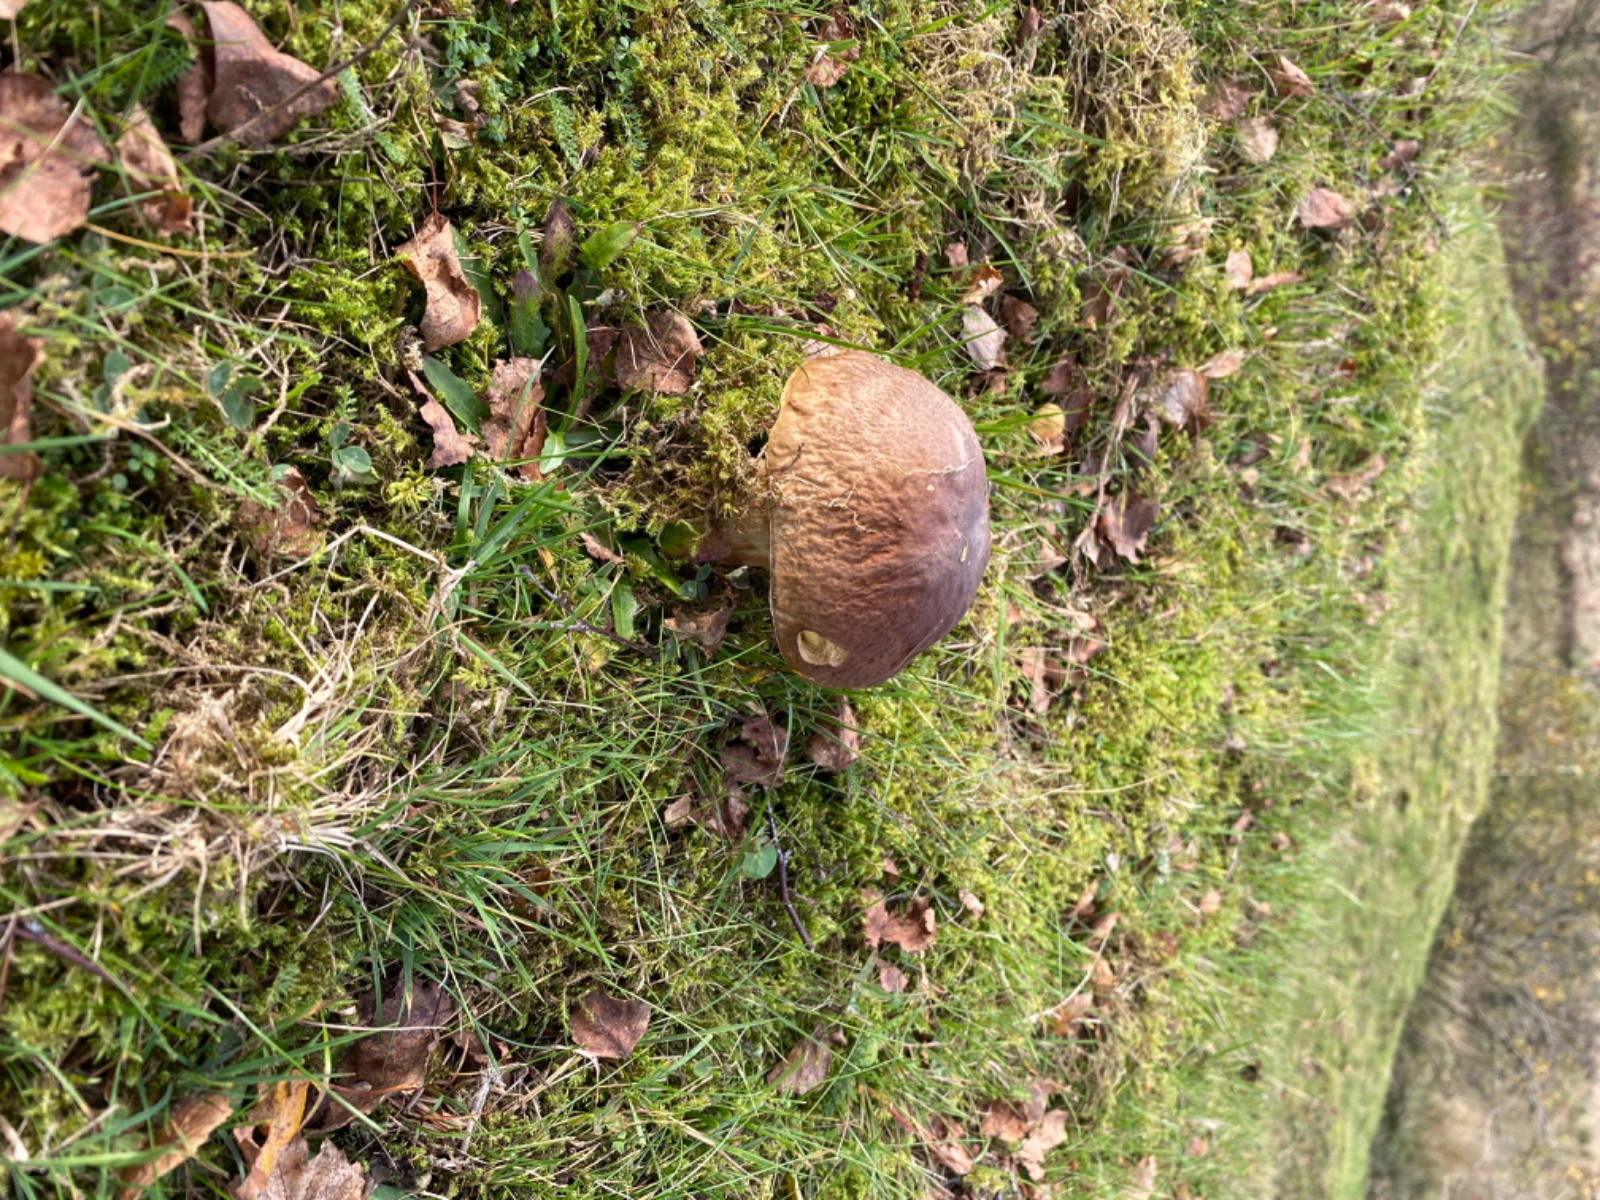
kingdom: Fungi
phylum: Basidiomycota
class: Agaricomycetes
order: Boletales
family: Boletaceae
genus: Boletus
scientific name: Boletus edulis
